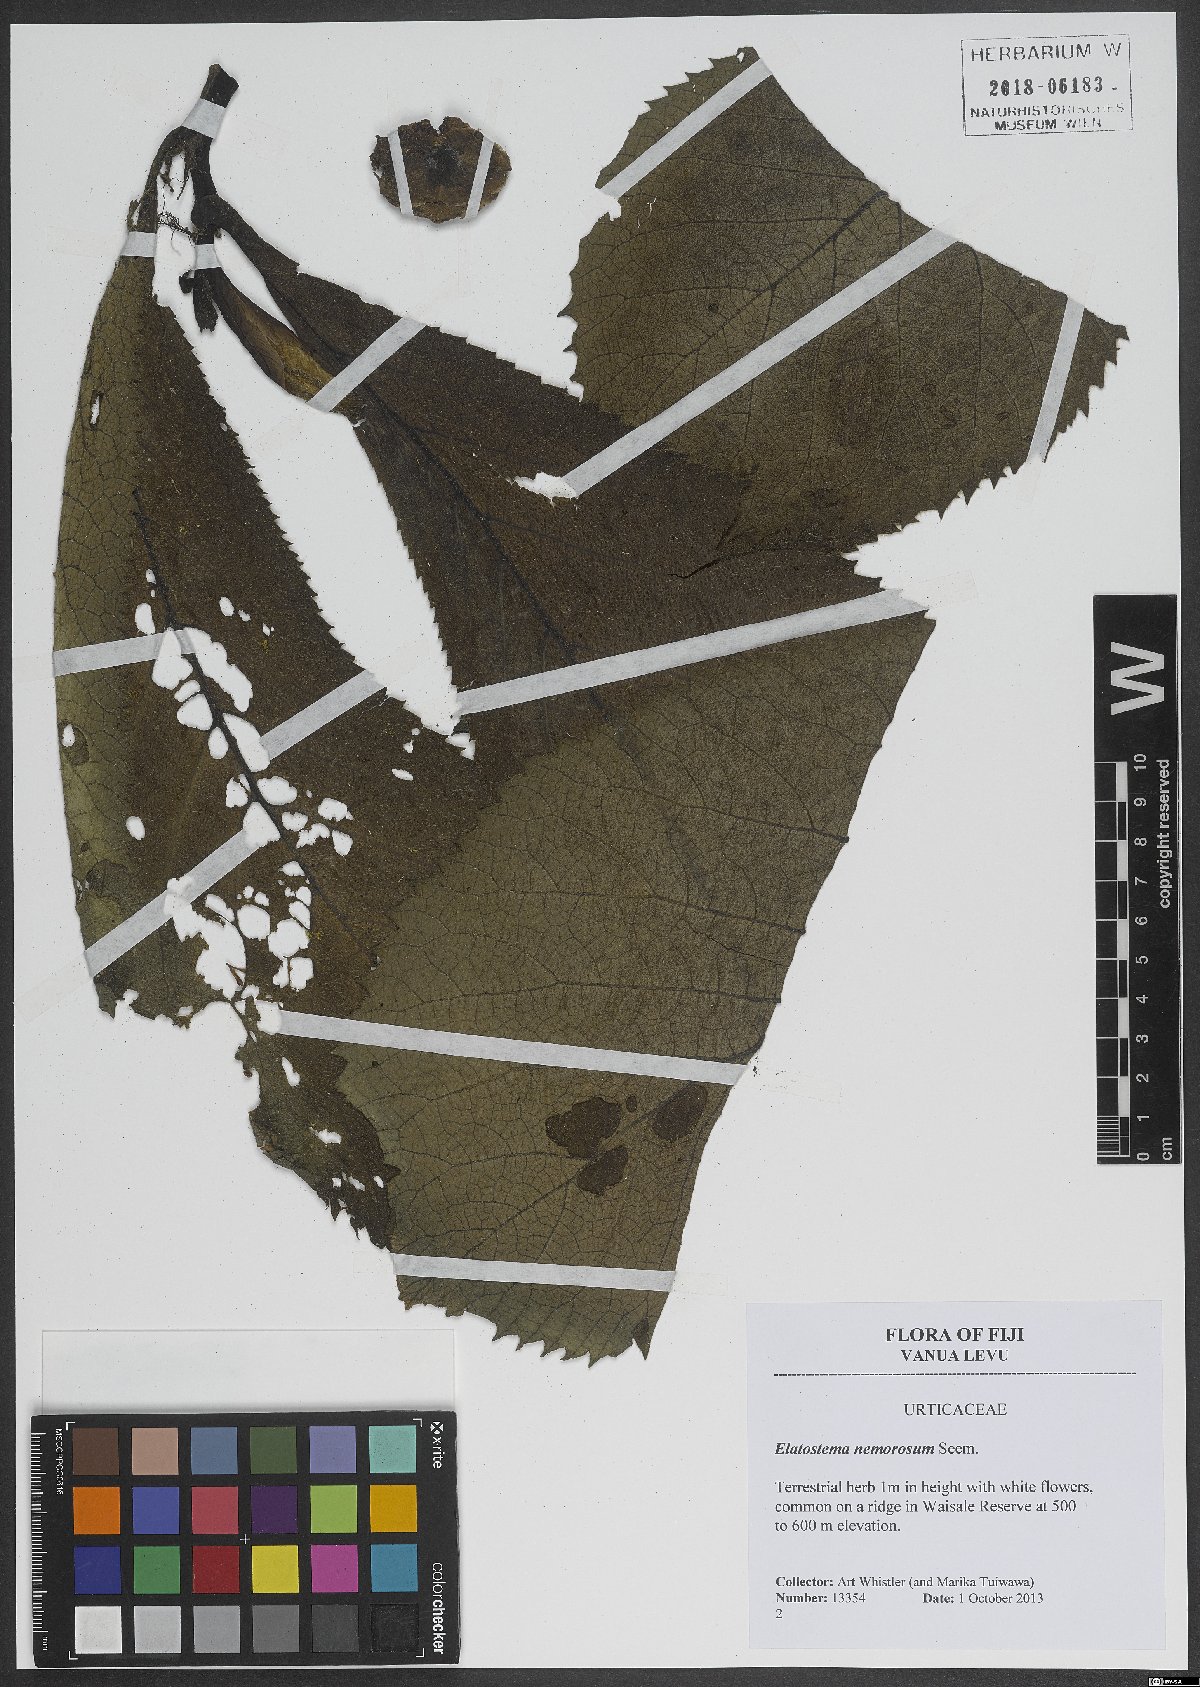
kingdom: Plantae
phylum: Tracheophyta
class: Magnoliopsida
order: Rosales
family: Urticaceae
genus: Elatostema
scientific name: Elatostema nemorosum
